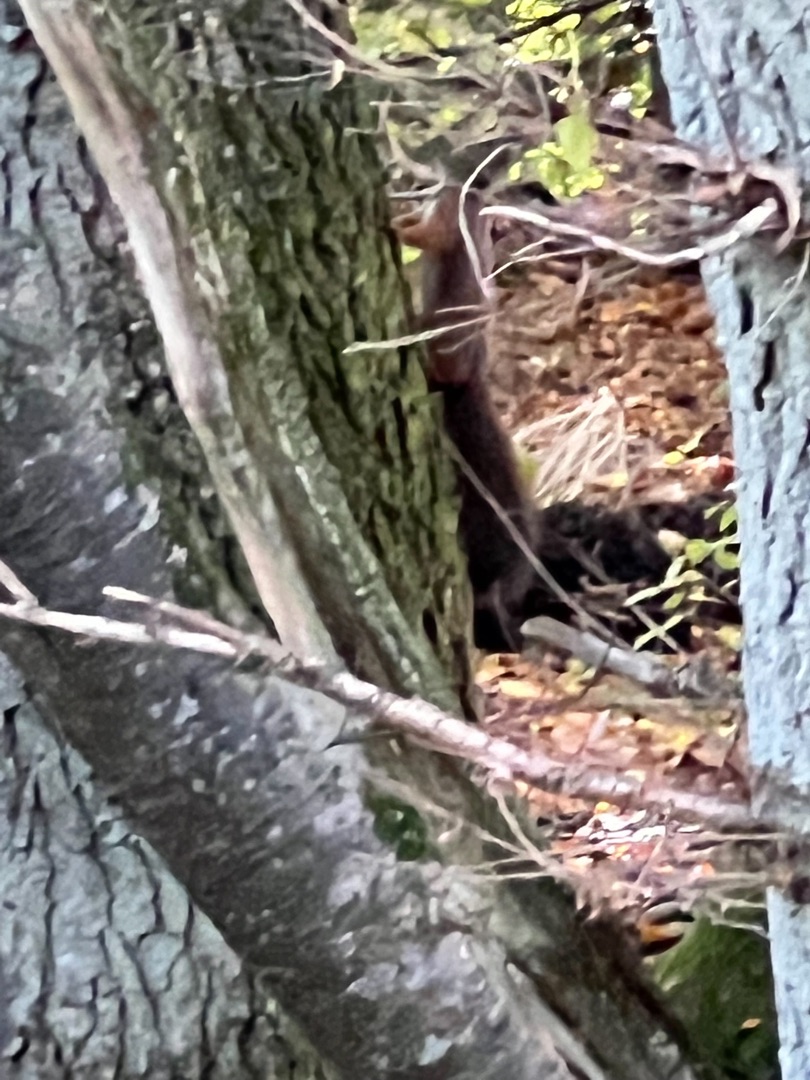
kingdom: Animalia
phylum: Chordata
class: Mammalia
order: Rodentia
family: Sciuridae
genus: Sciurus
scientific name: Sciurus vulgaris
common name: Egern
